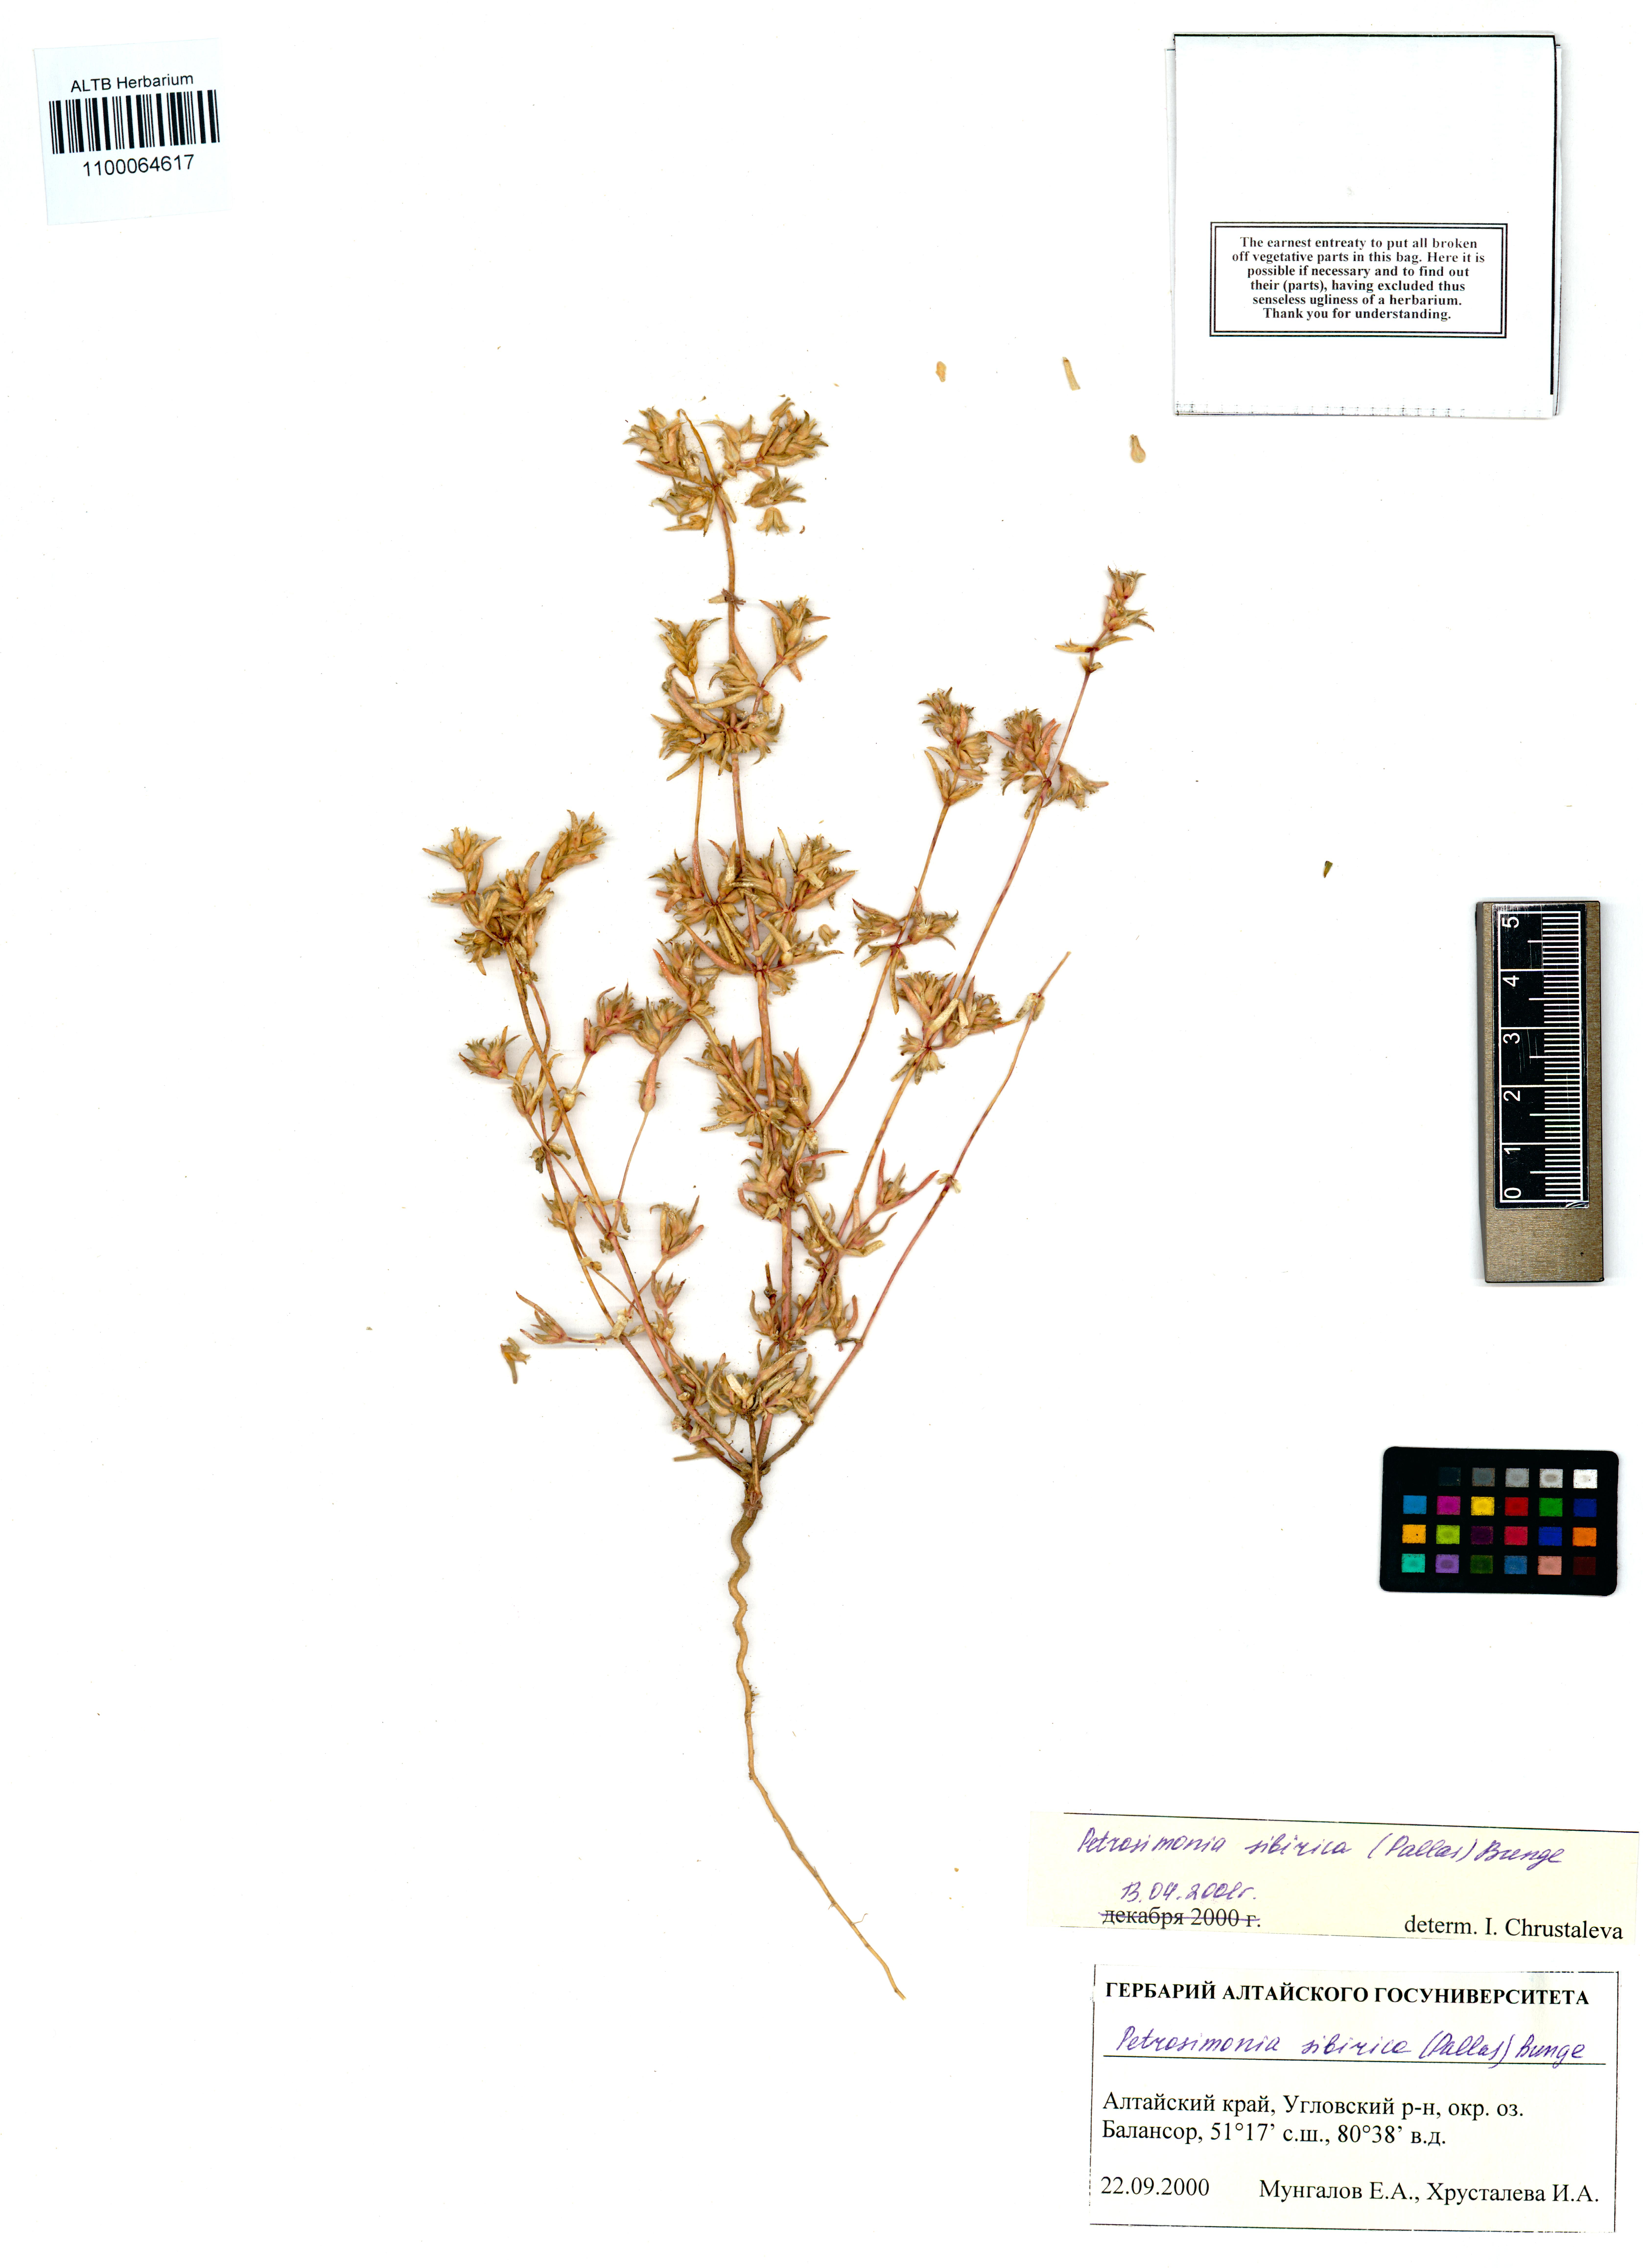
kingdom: Plantae
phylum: Tracheophyta
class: Magnoliopsida
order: Caryophyllales
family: Amaranthaceae
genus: Petrosimonia
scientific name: Petrosimonia sibirica
